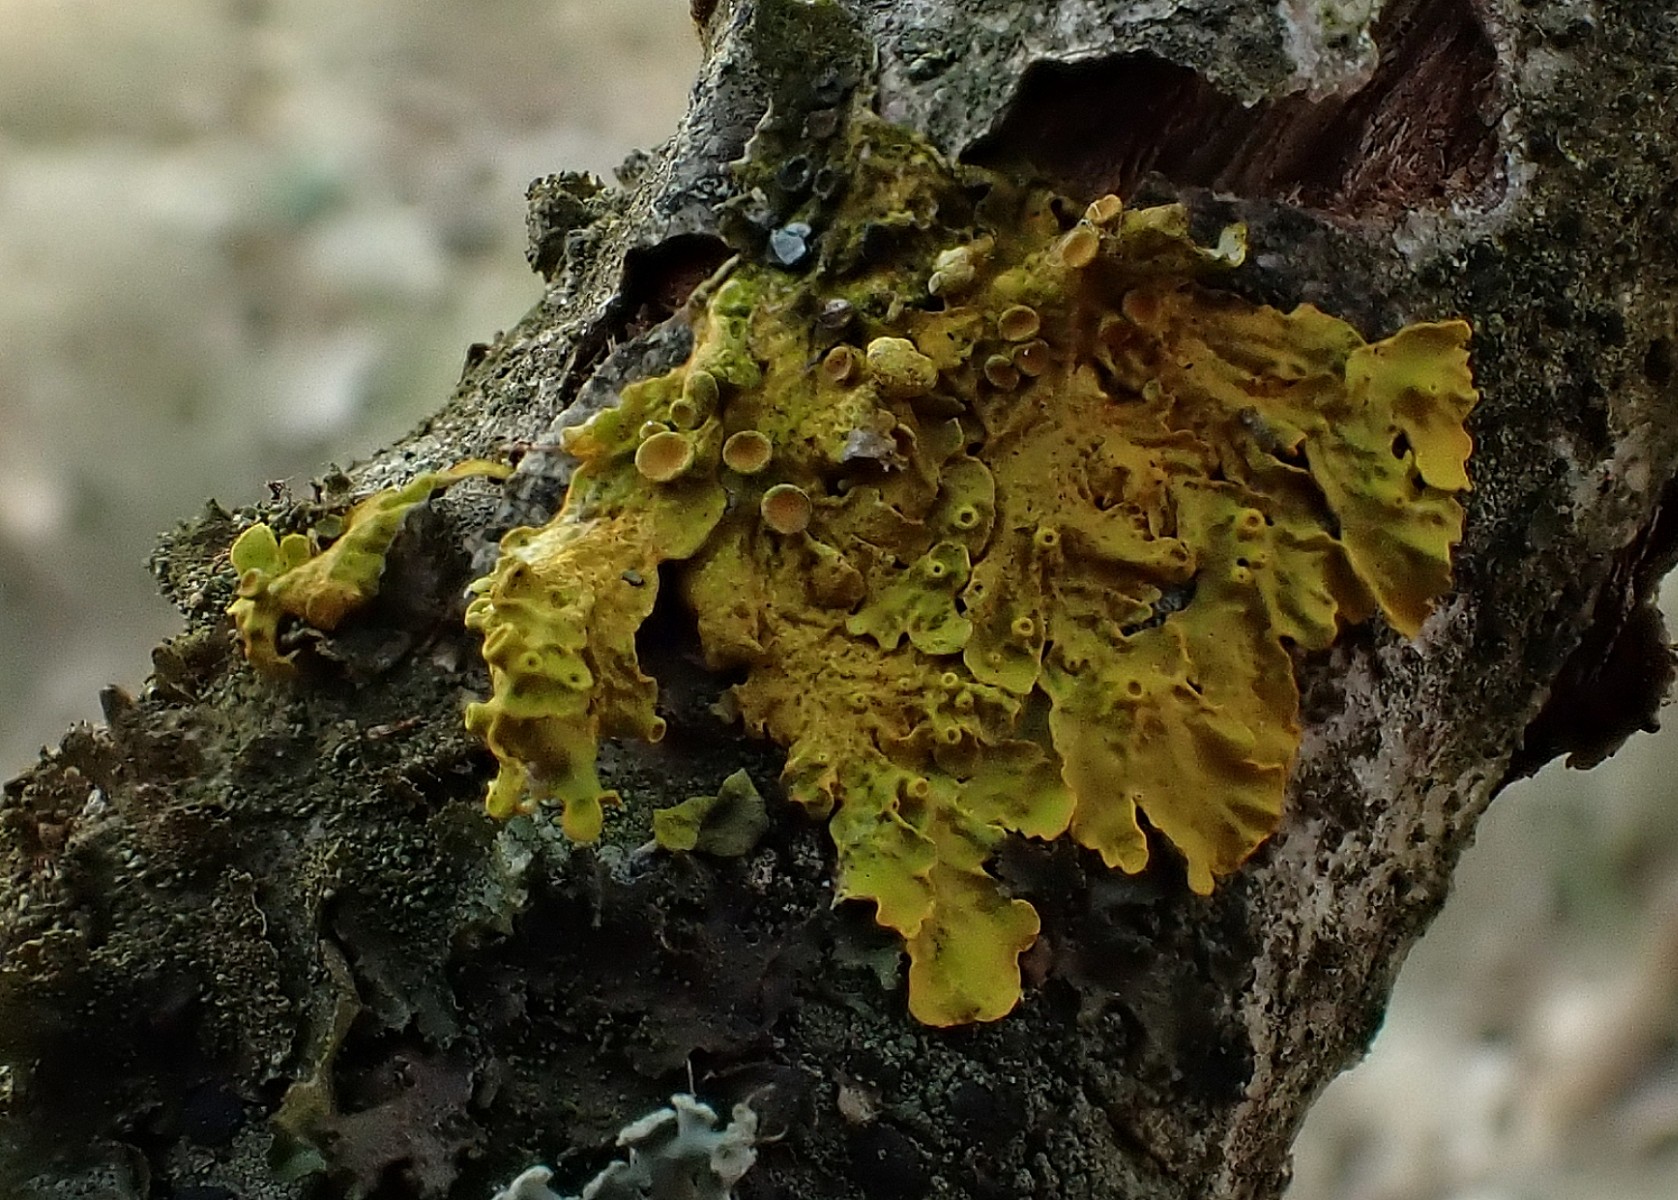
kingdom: Fungi
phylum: Ascomycota
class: Lecanoromycetes
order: Teloschistales
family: Teloschistaceae
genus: Xanthoria
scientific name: Xanthoria parietina
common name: almindelig væggelav
